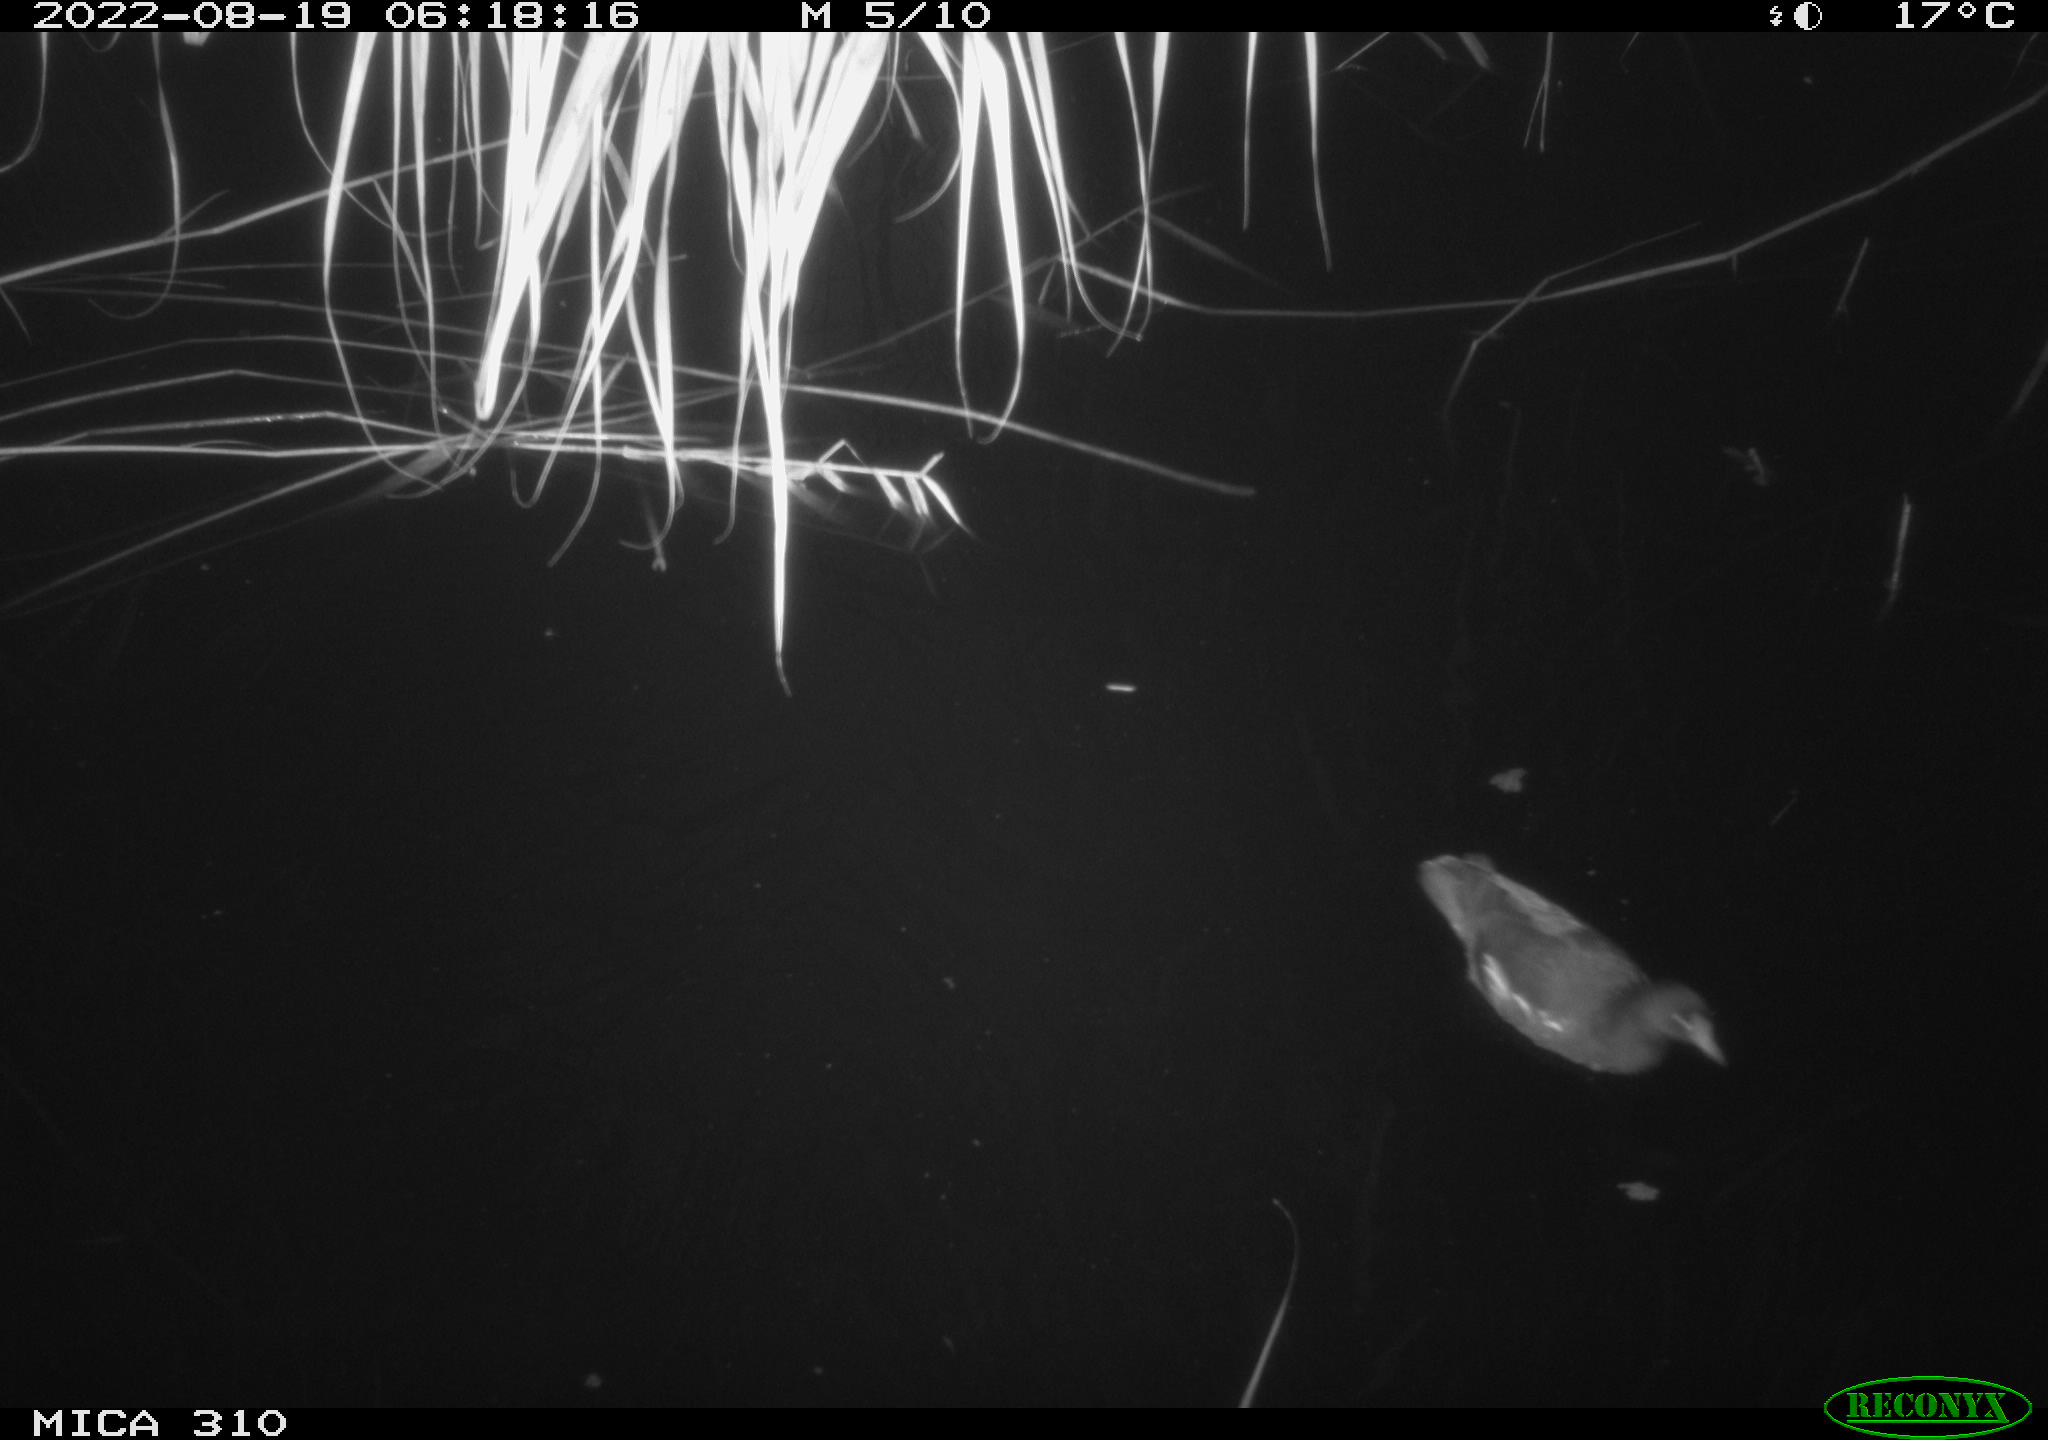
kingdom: Animalia
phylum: Chordata
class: Aves
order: Gruiformes
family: Rallidae
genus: Gallinula
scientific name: Gallinula chloropus
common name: Common moorhen
